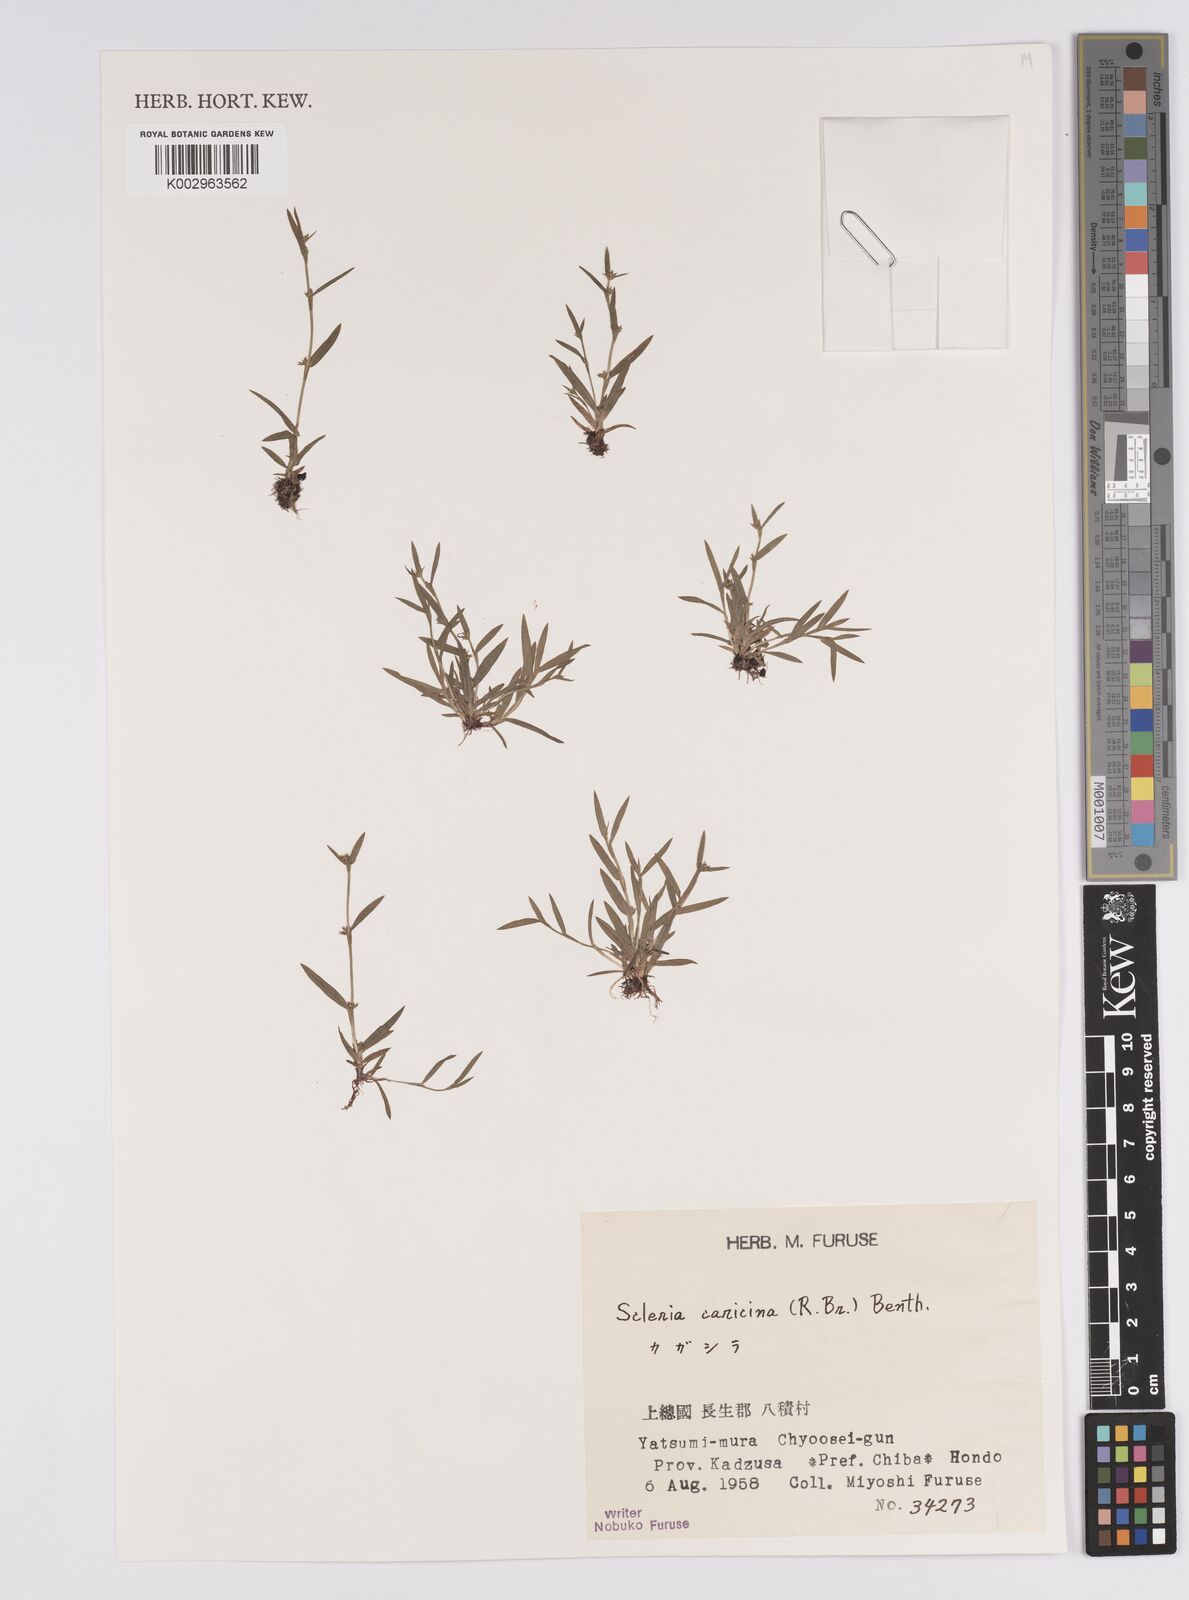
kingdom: Plantae
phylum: Tracheophyta
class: Liliopsida
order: Poales
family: Cyperaceae
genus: Diplacrum
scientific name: Diplacrum caricinum
